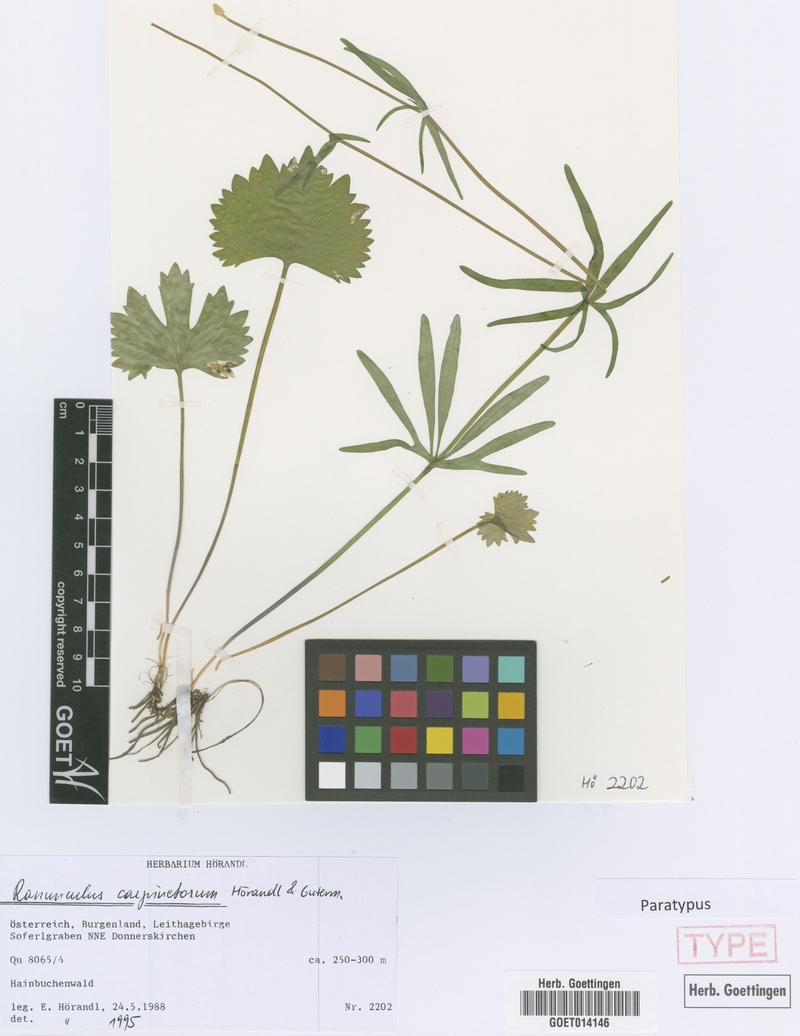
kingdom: Plantae
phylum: Tracheophyta
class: Magnoliopsida
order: Ranunculales
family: Ranunculaceae
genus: Ranunculus
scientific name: Ranunculus carpinetorum
